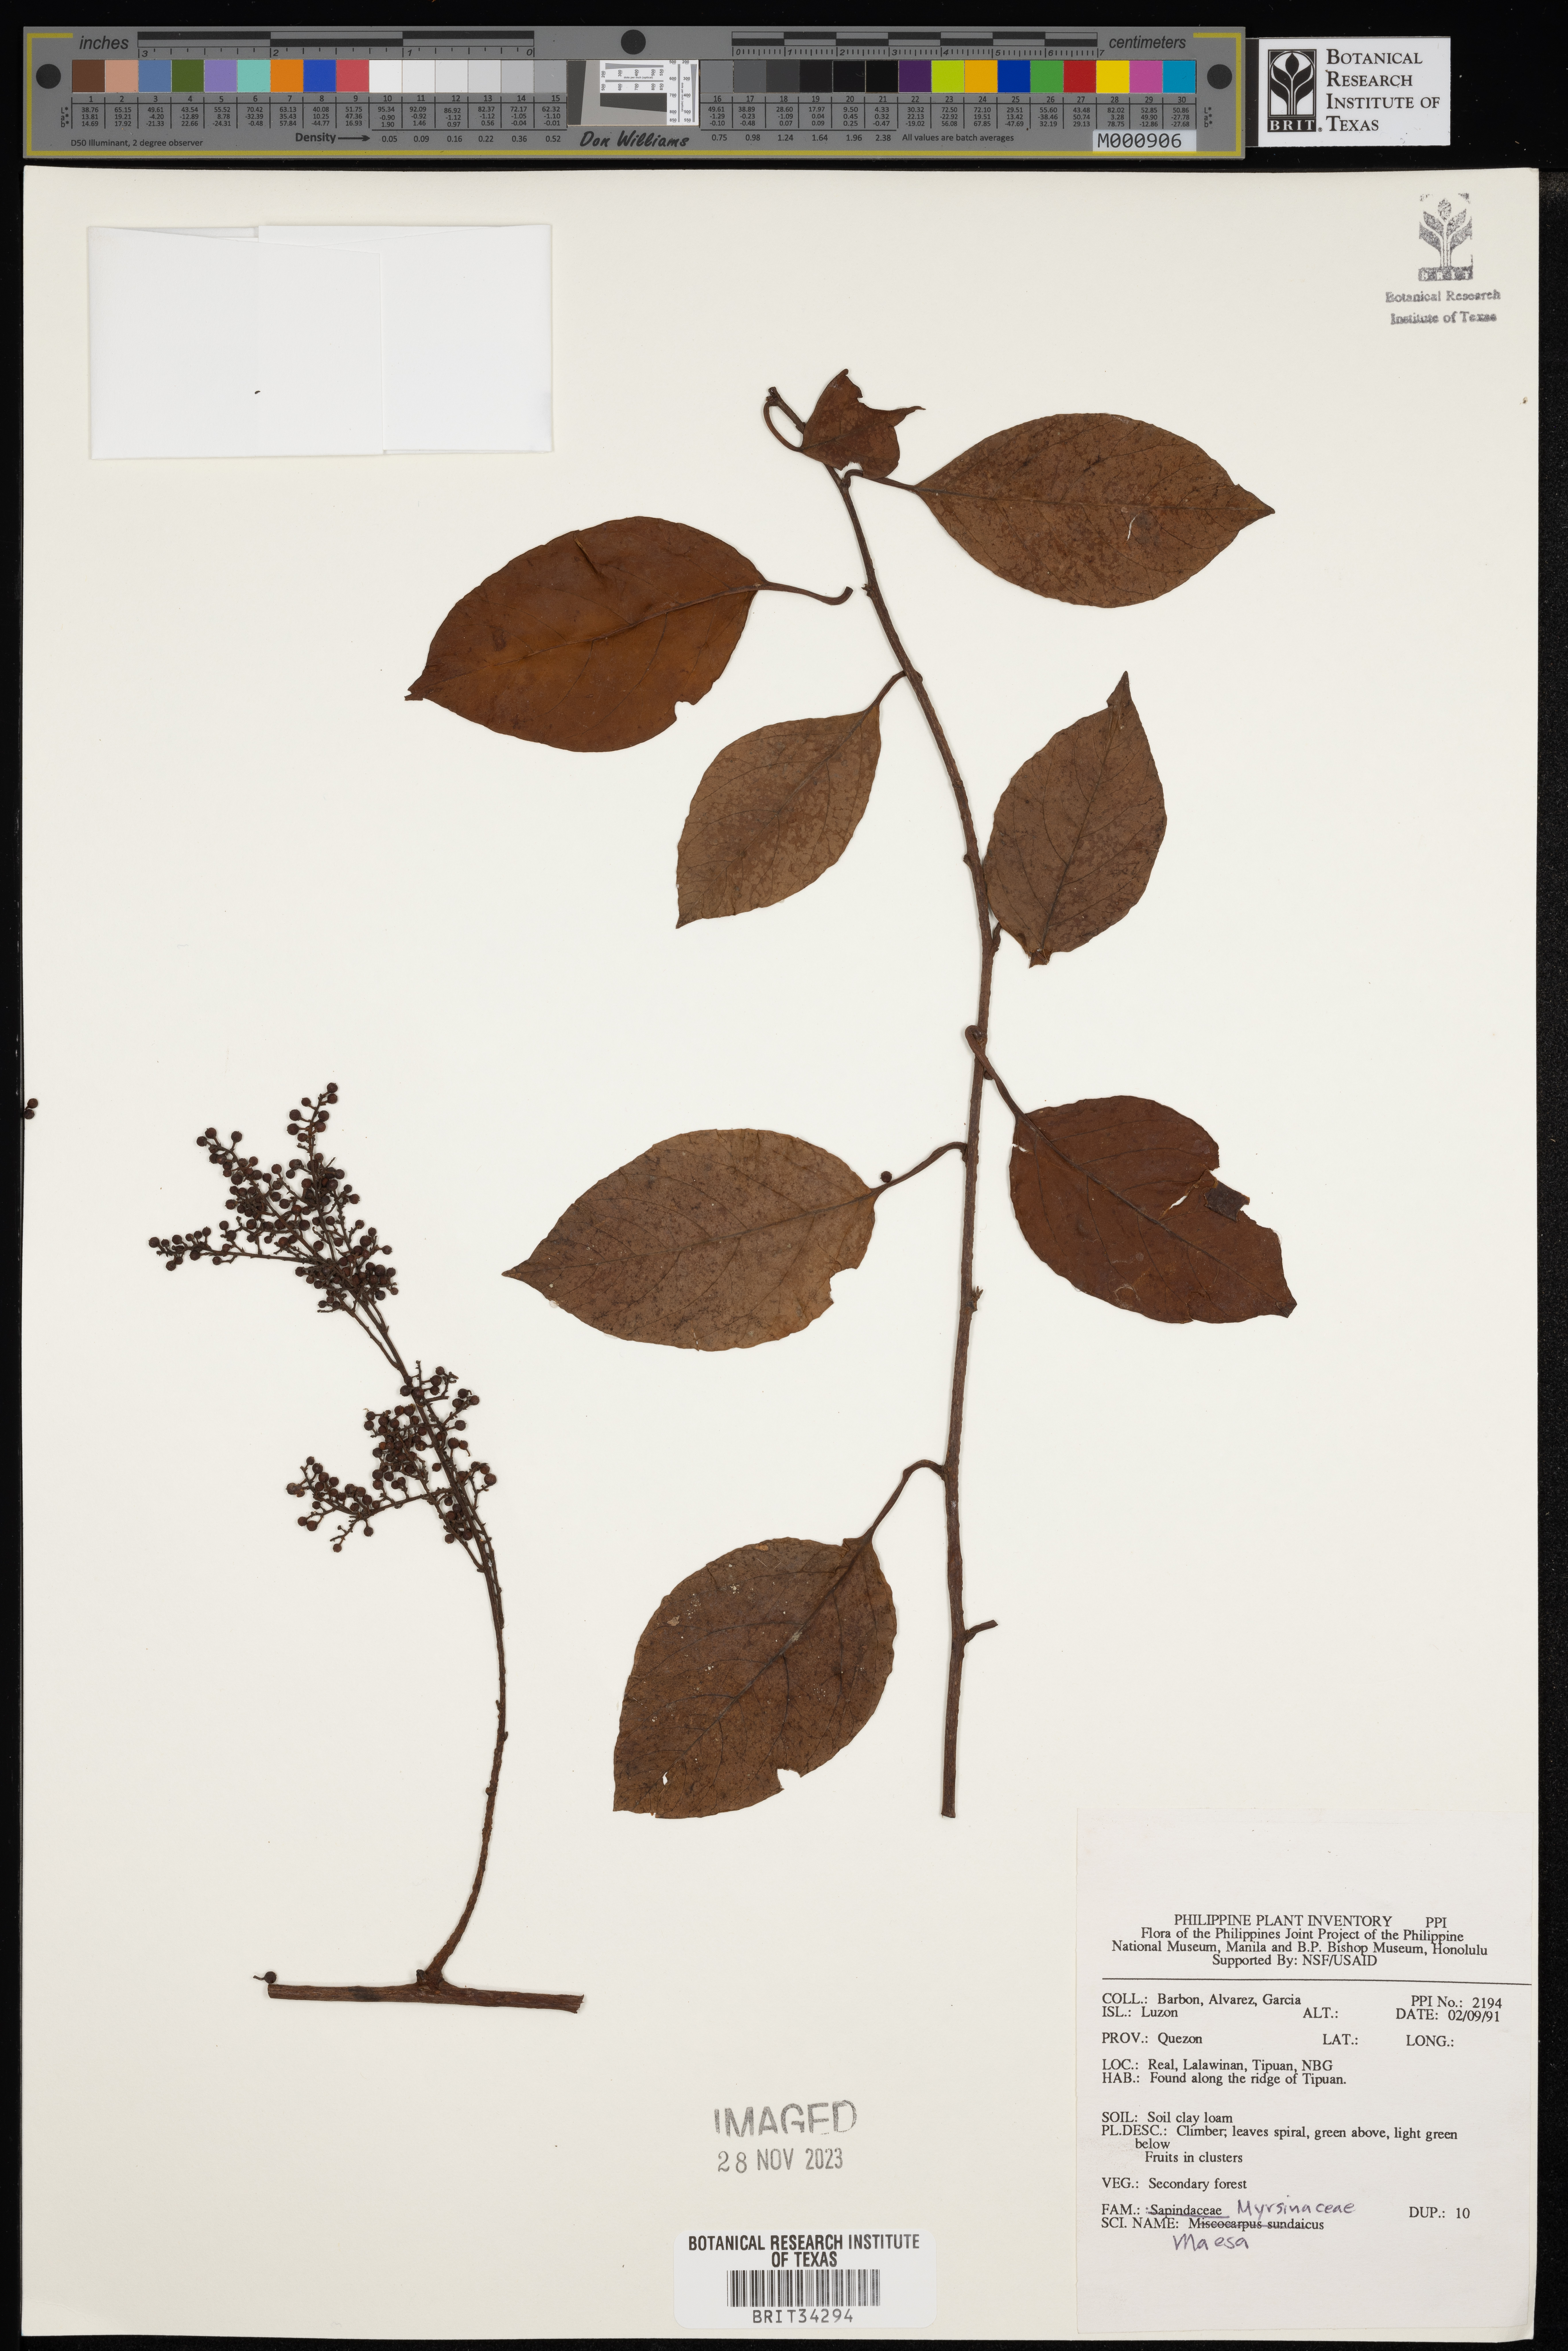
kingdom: Plantae
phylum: Tracheophyta
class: Magnoliopsida
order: Ericales
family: Primulaceae
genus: Maesa
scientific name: Maesa
